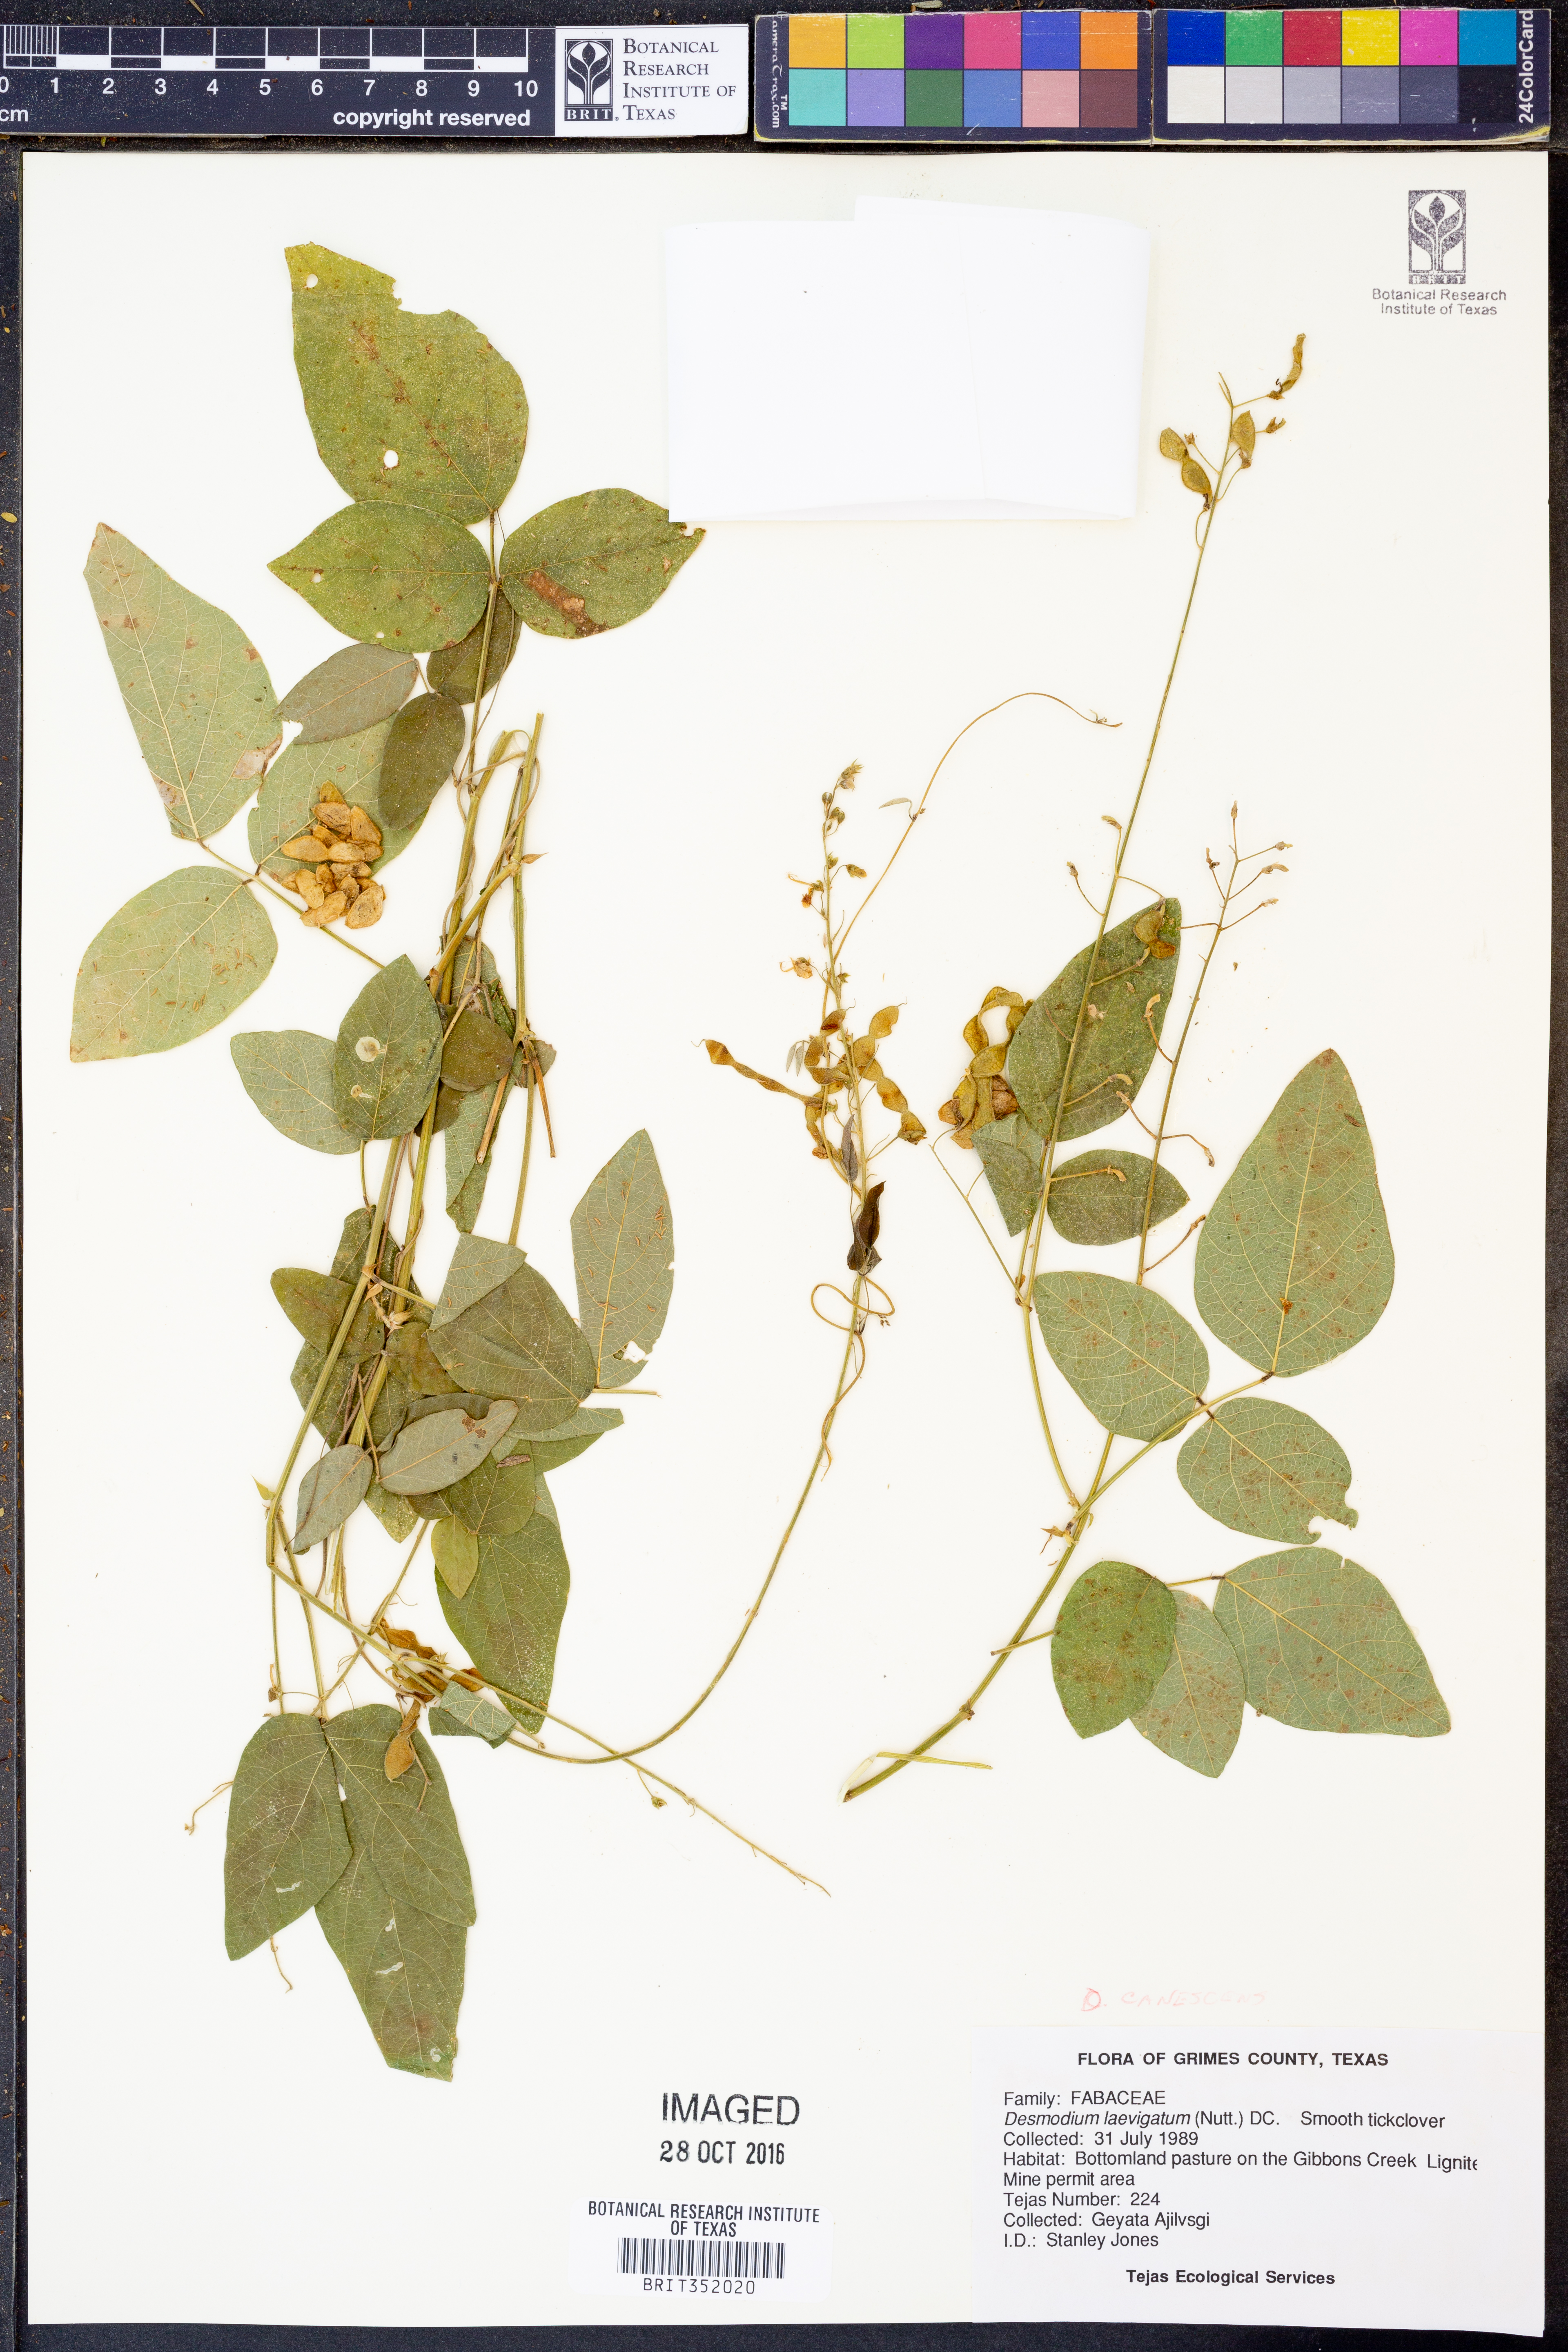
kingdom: Plantae
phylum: Tracheophyta
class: Magnoliopsida
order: Fabales
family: Fabaceae
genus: Desmodium
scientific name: Desmodium canescens
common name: Hoary tick-clover
